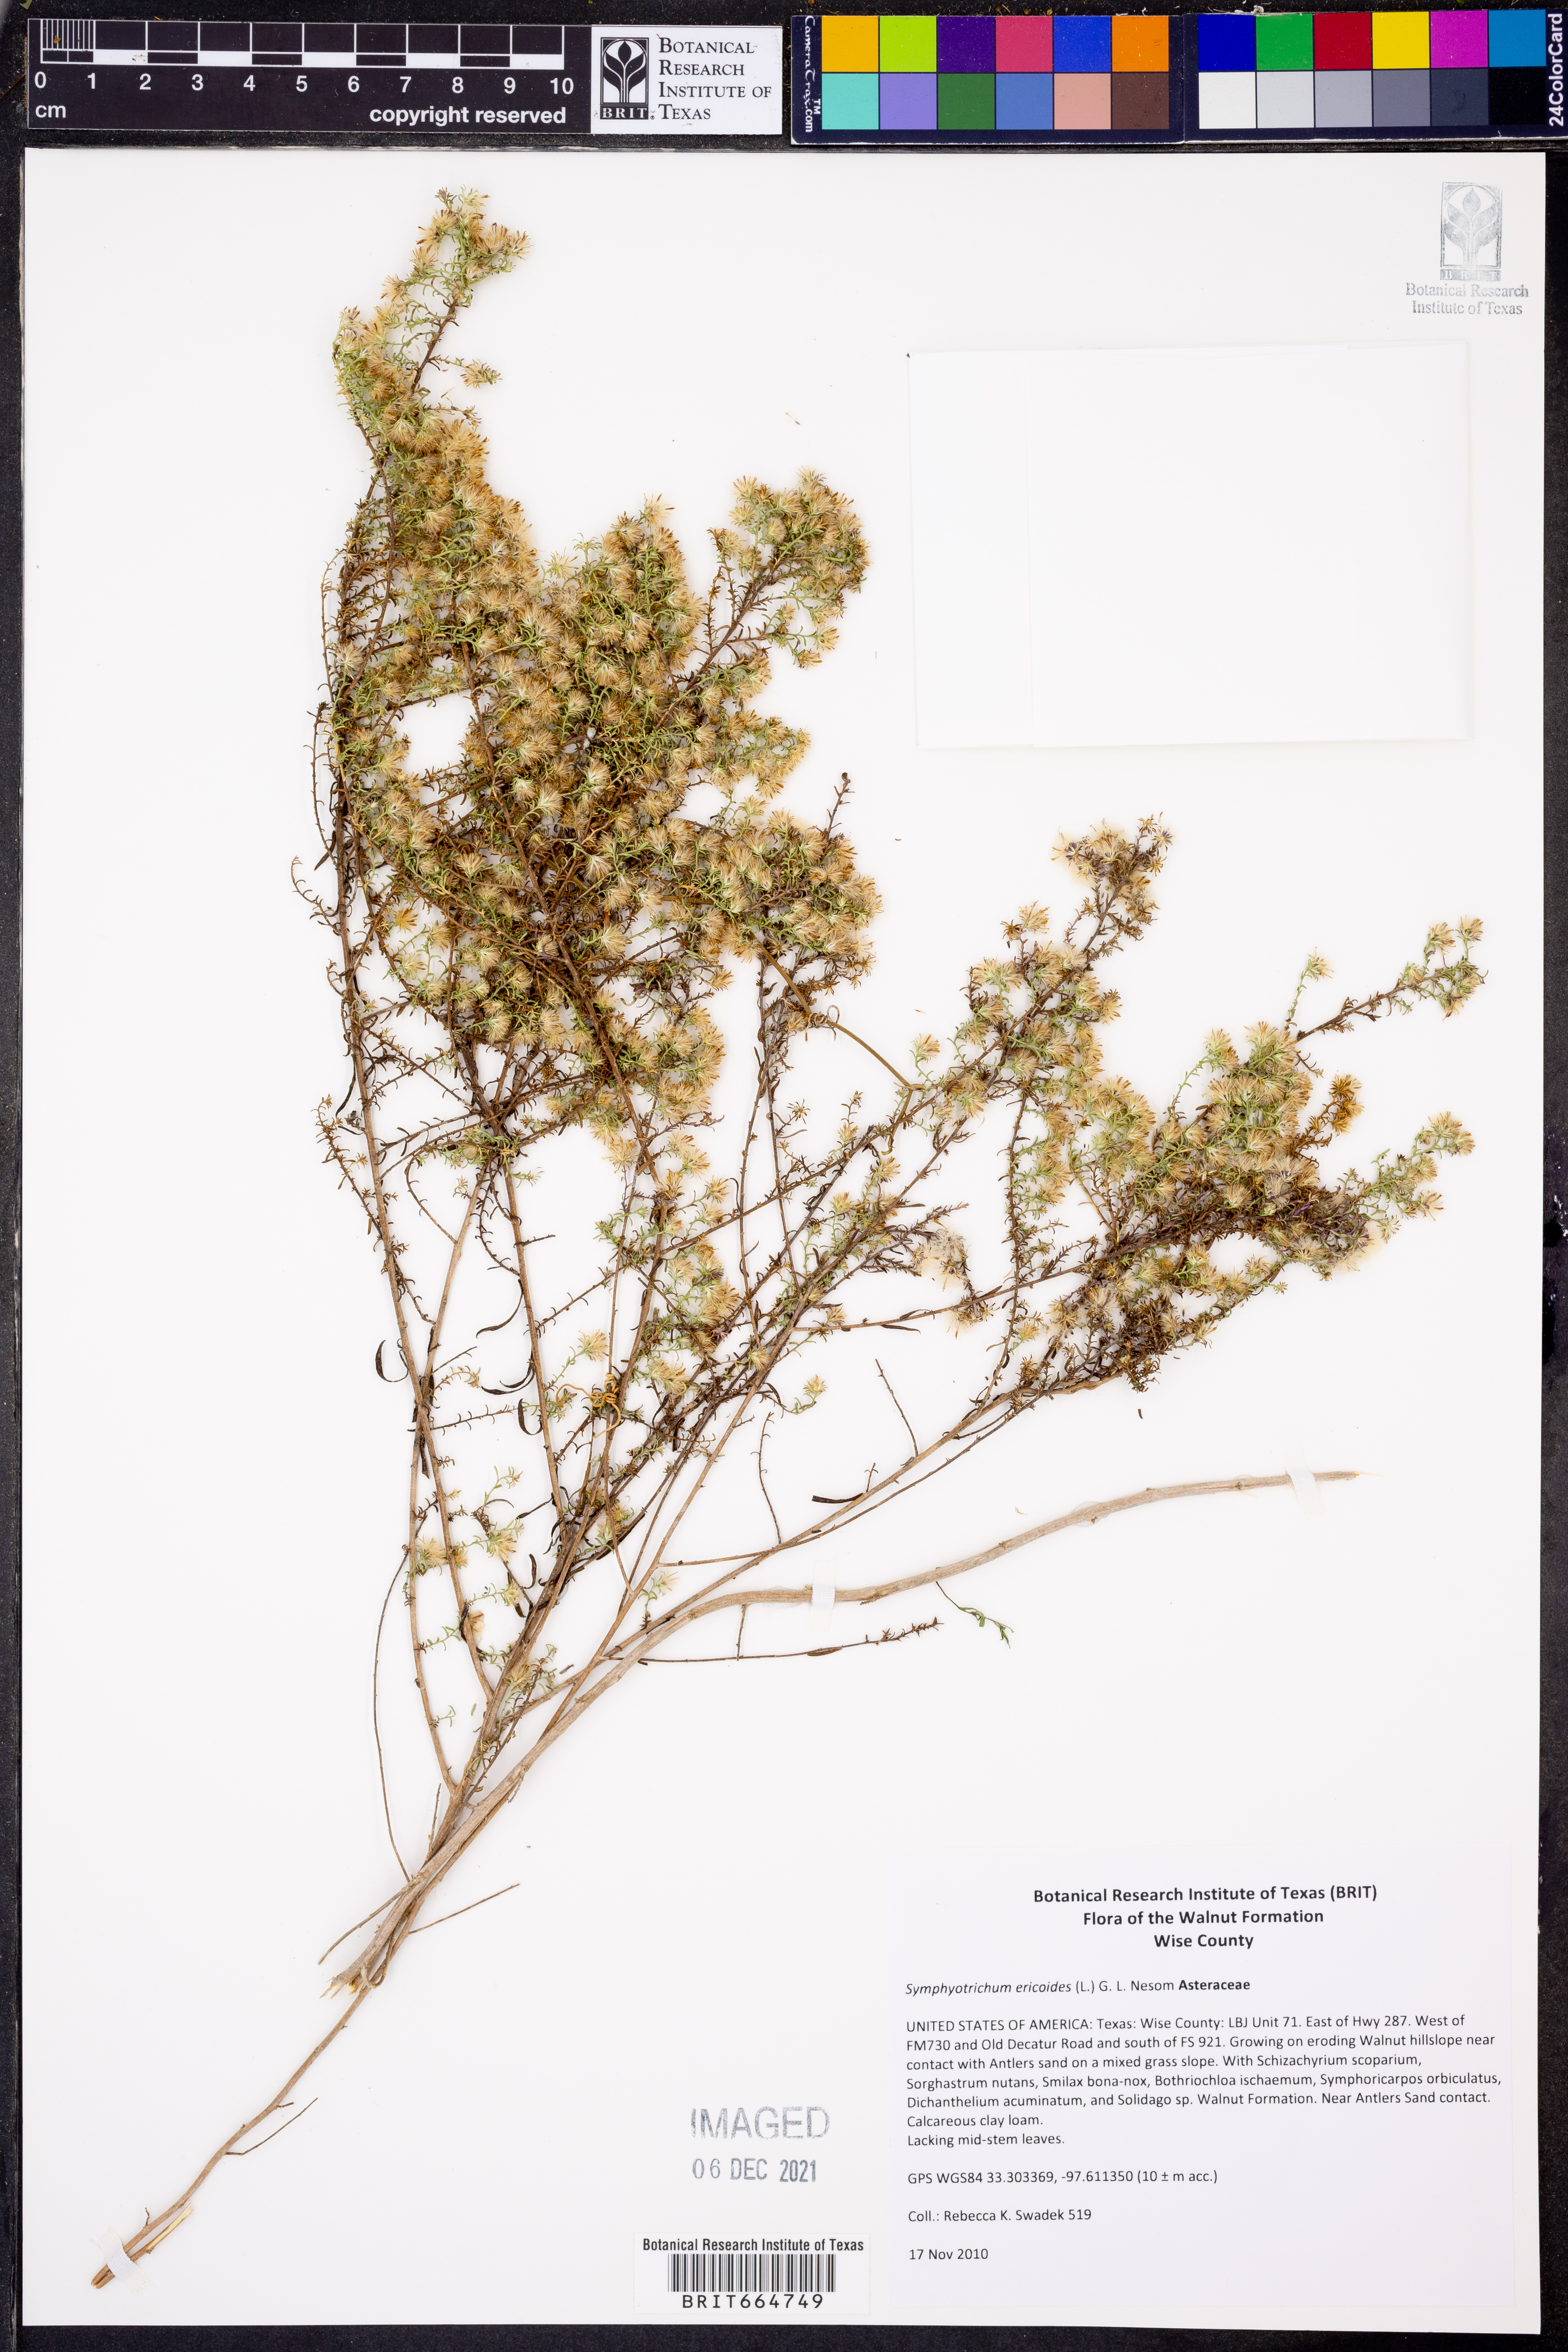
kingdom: Plantae
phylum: Tracheophyta
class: Magnoliopsida
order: Asterales
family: Asteraceae
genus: Symphyotrichum
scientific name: Symphyotrichum ericoides
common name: Heath aster
